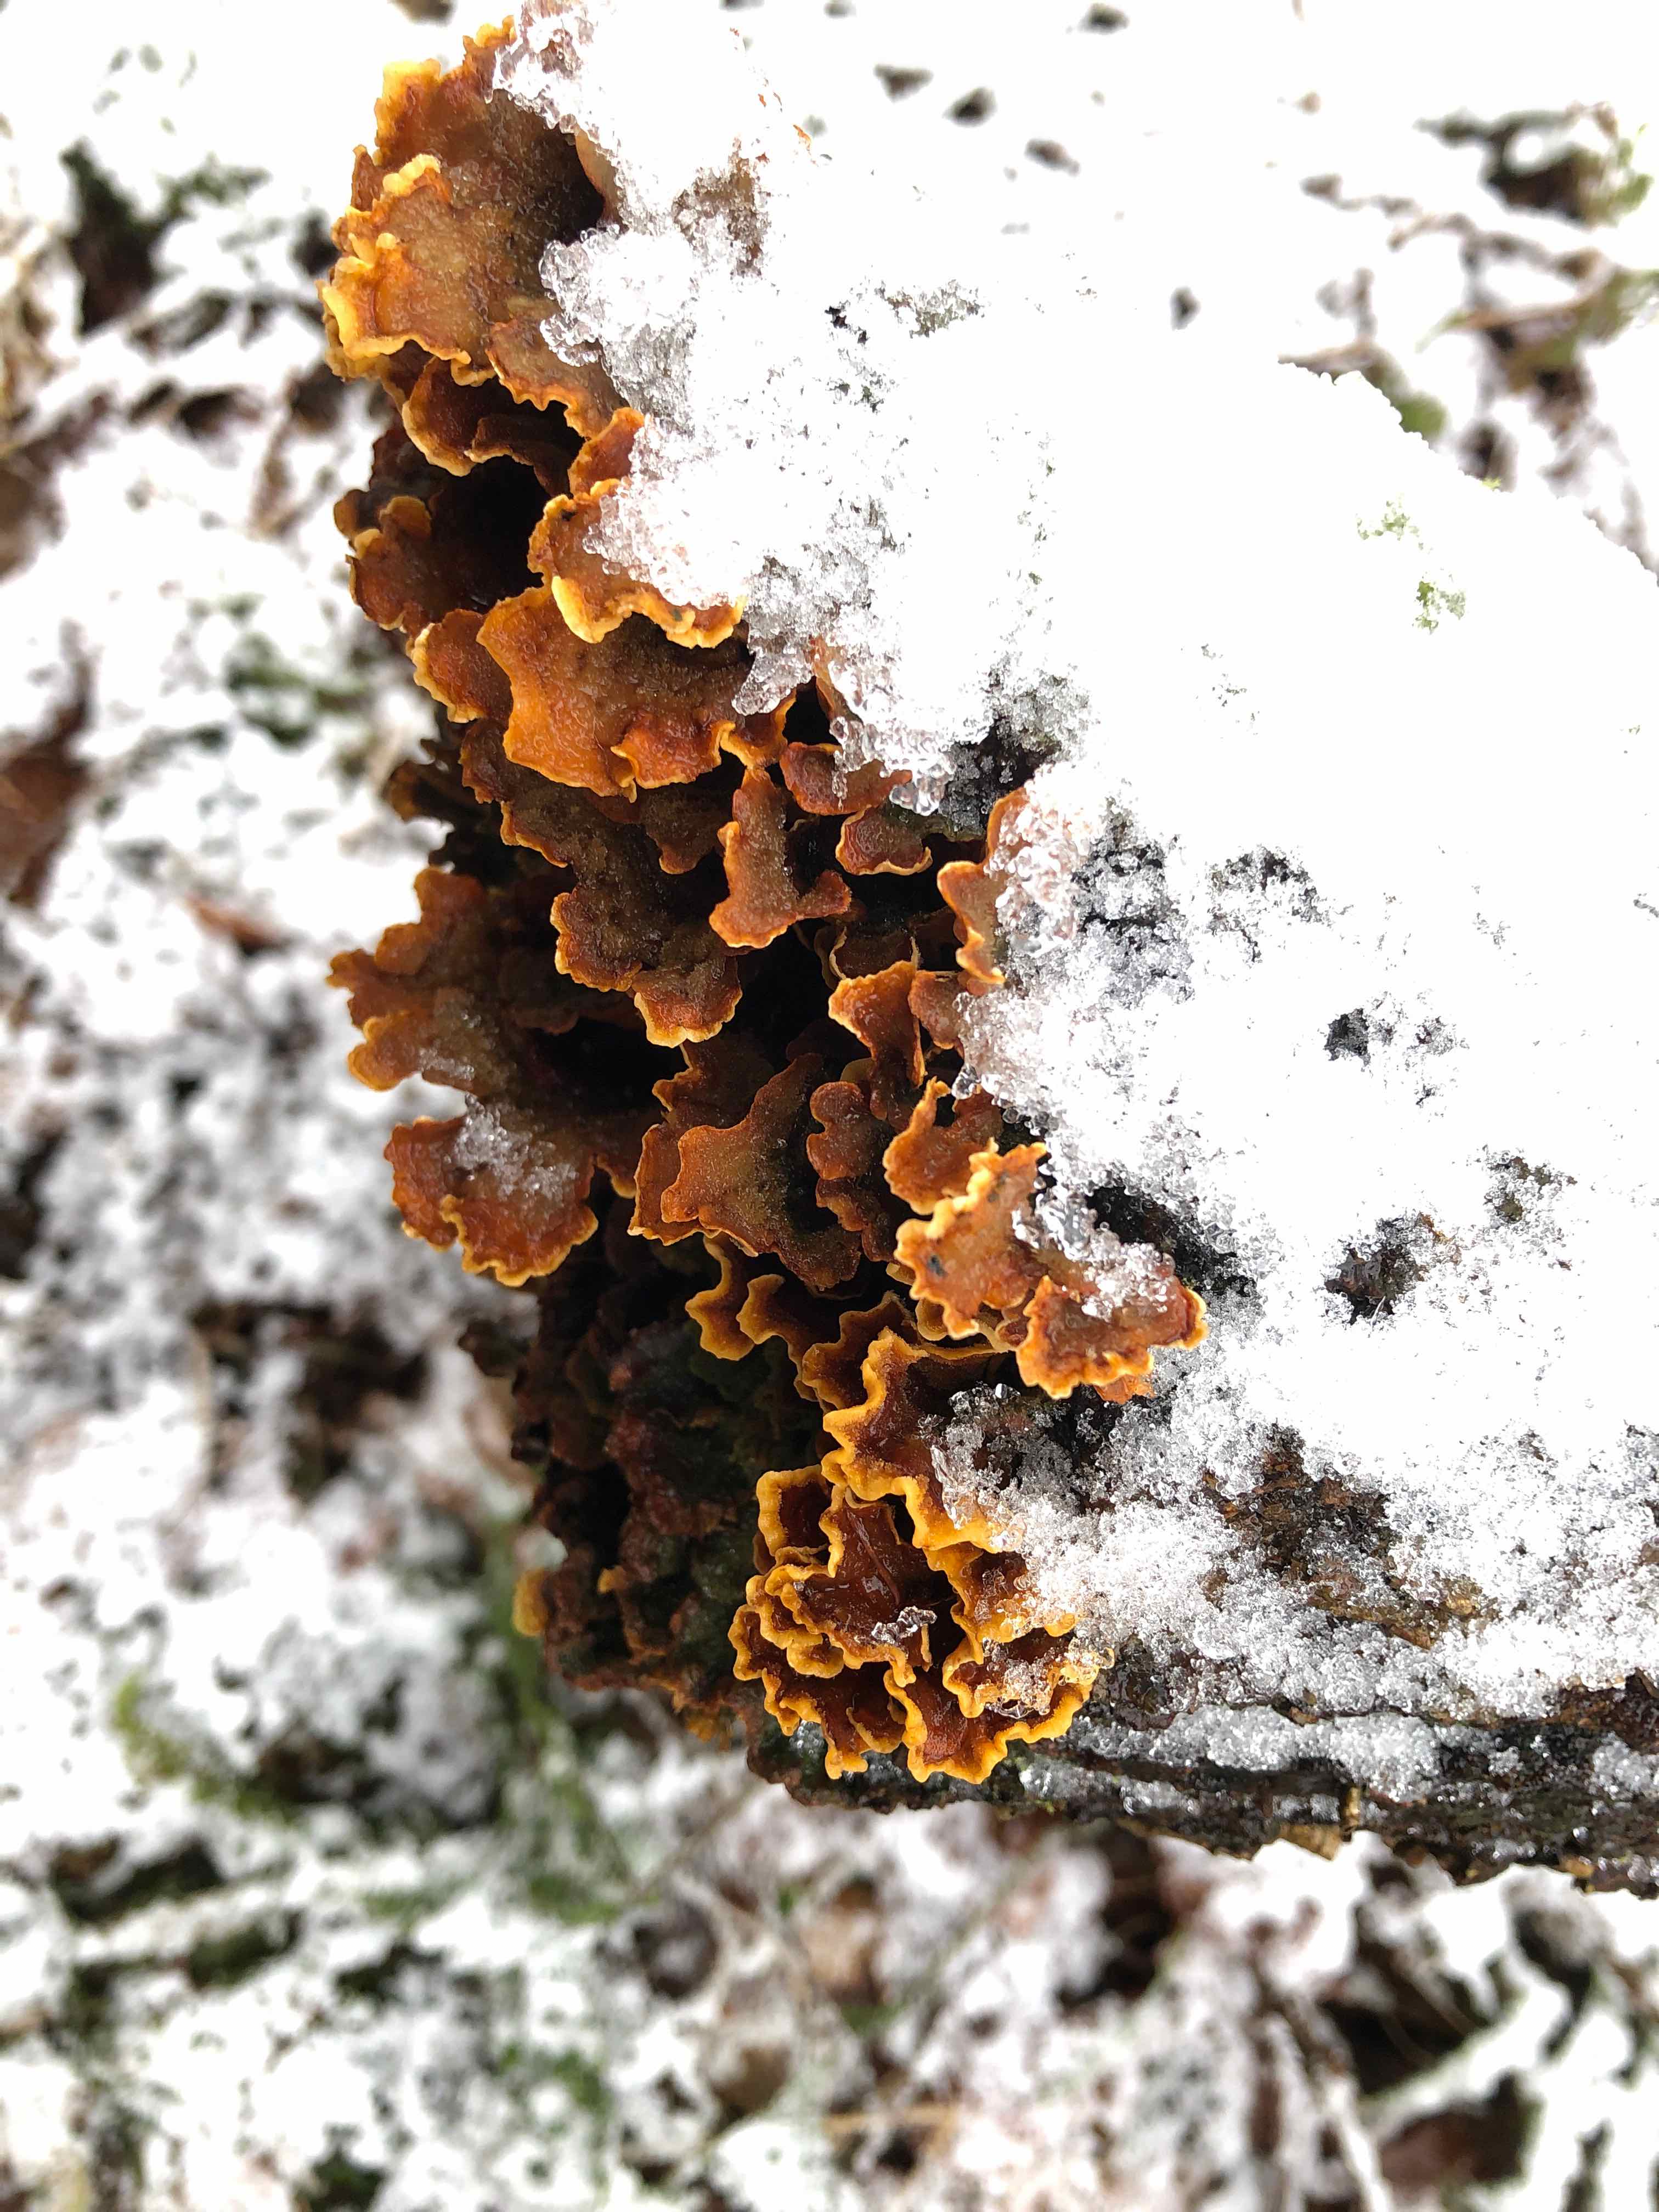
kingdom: Fungi
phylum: Basidiomycota
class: Agaricomycetes
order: Russulales
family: Stereaceae
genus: Stereum
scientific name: Stereum hirsutum
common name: håret lædersvamp
